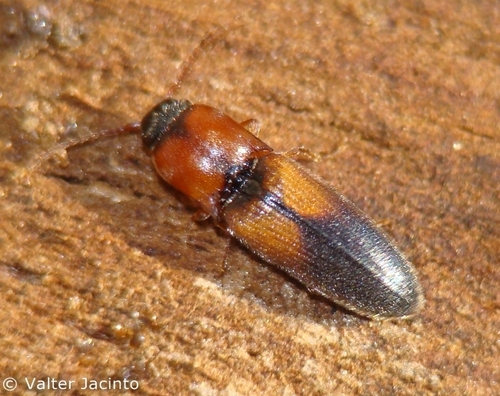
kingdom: Animalia
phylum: Arthropoda
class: Insecta
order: Coleoptera
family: Elateridae
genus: Peripontius
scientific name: Peripontius dimidiatipennis
